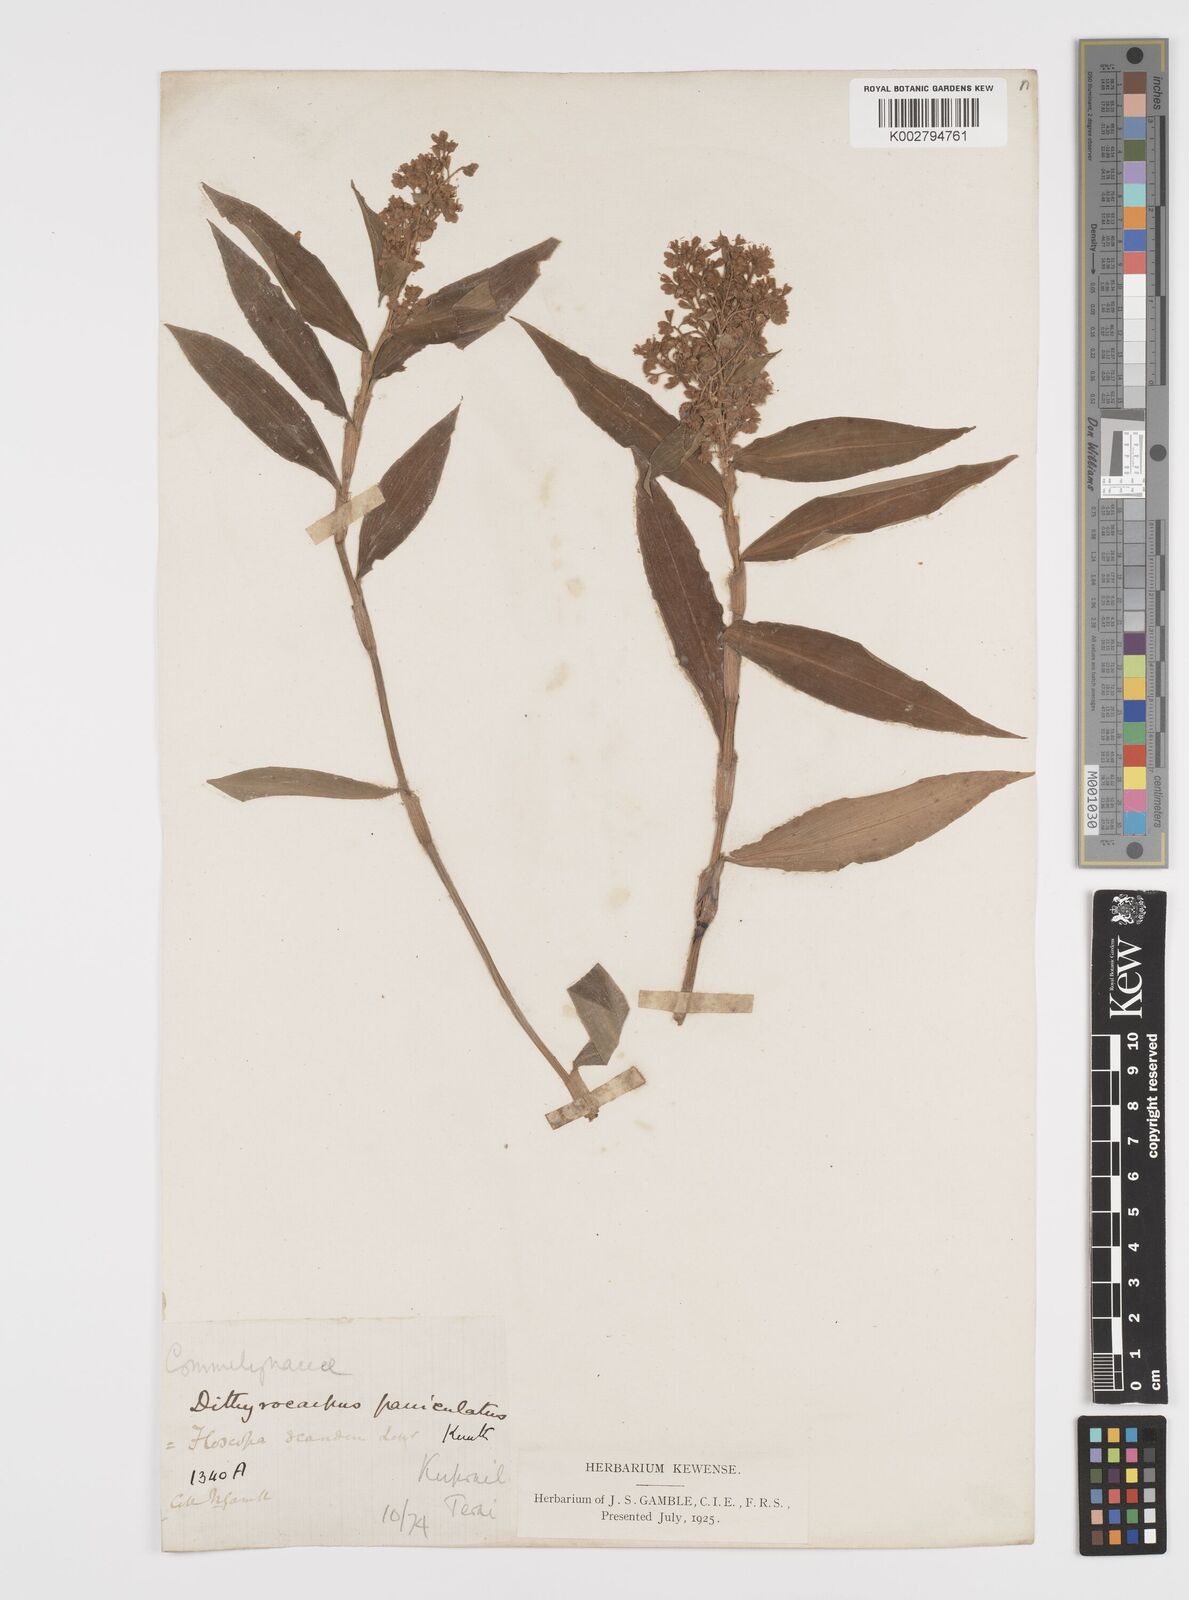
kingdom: Plantae
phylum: Tracheophyta
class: Liliopsida
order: Commelinales
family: Commelinaceae
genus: Floscopa
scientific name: Floscopa scandens
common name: Climbing flower cup
